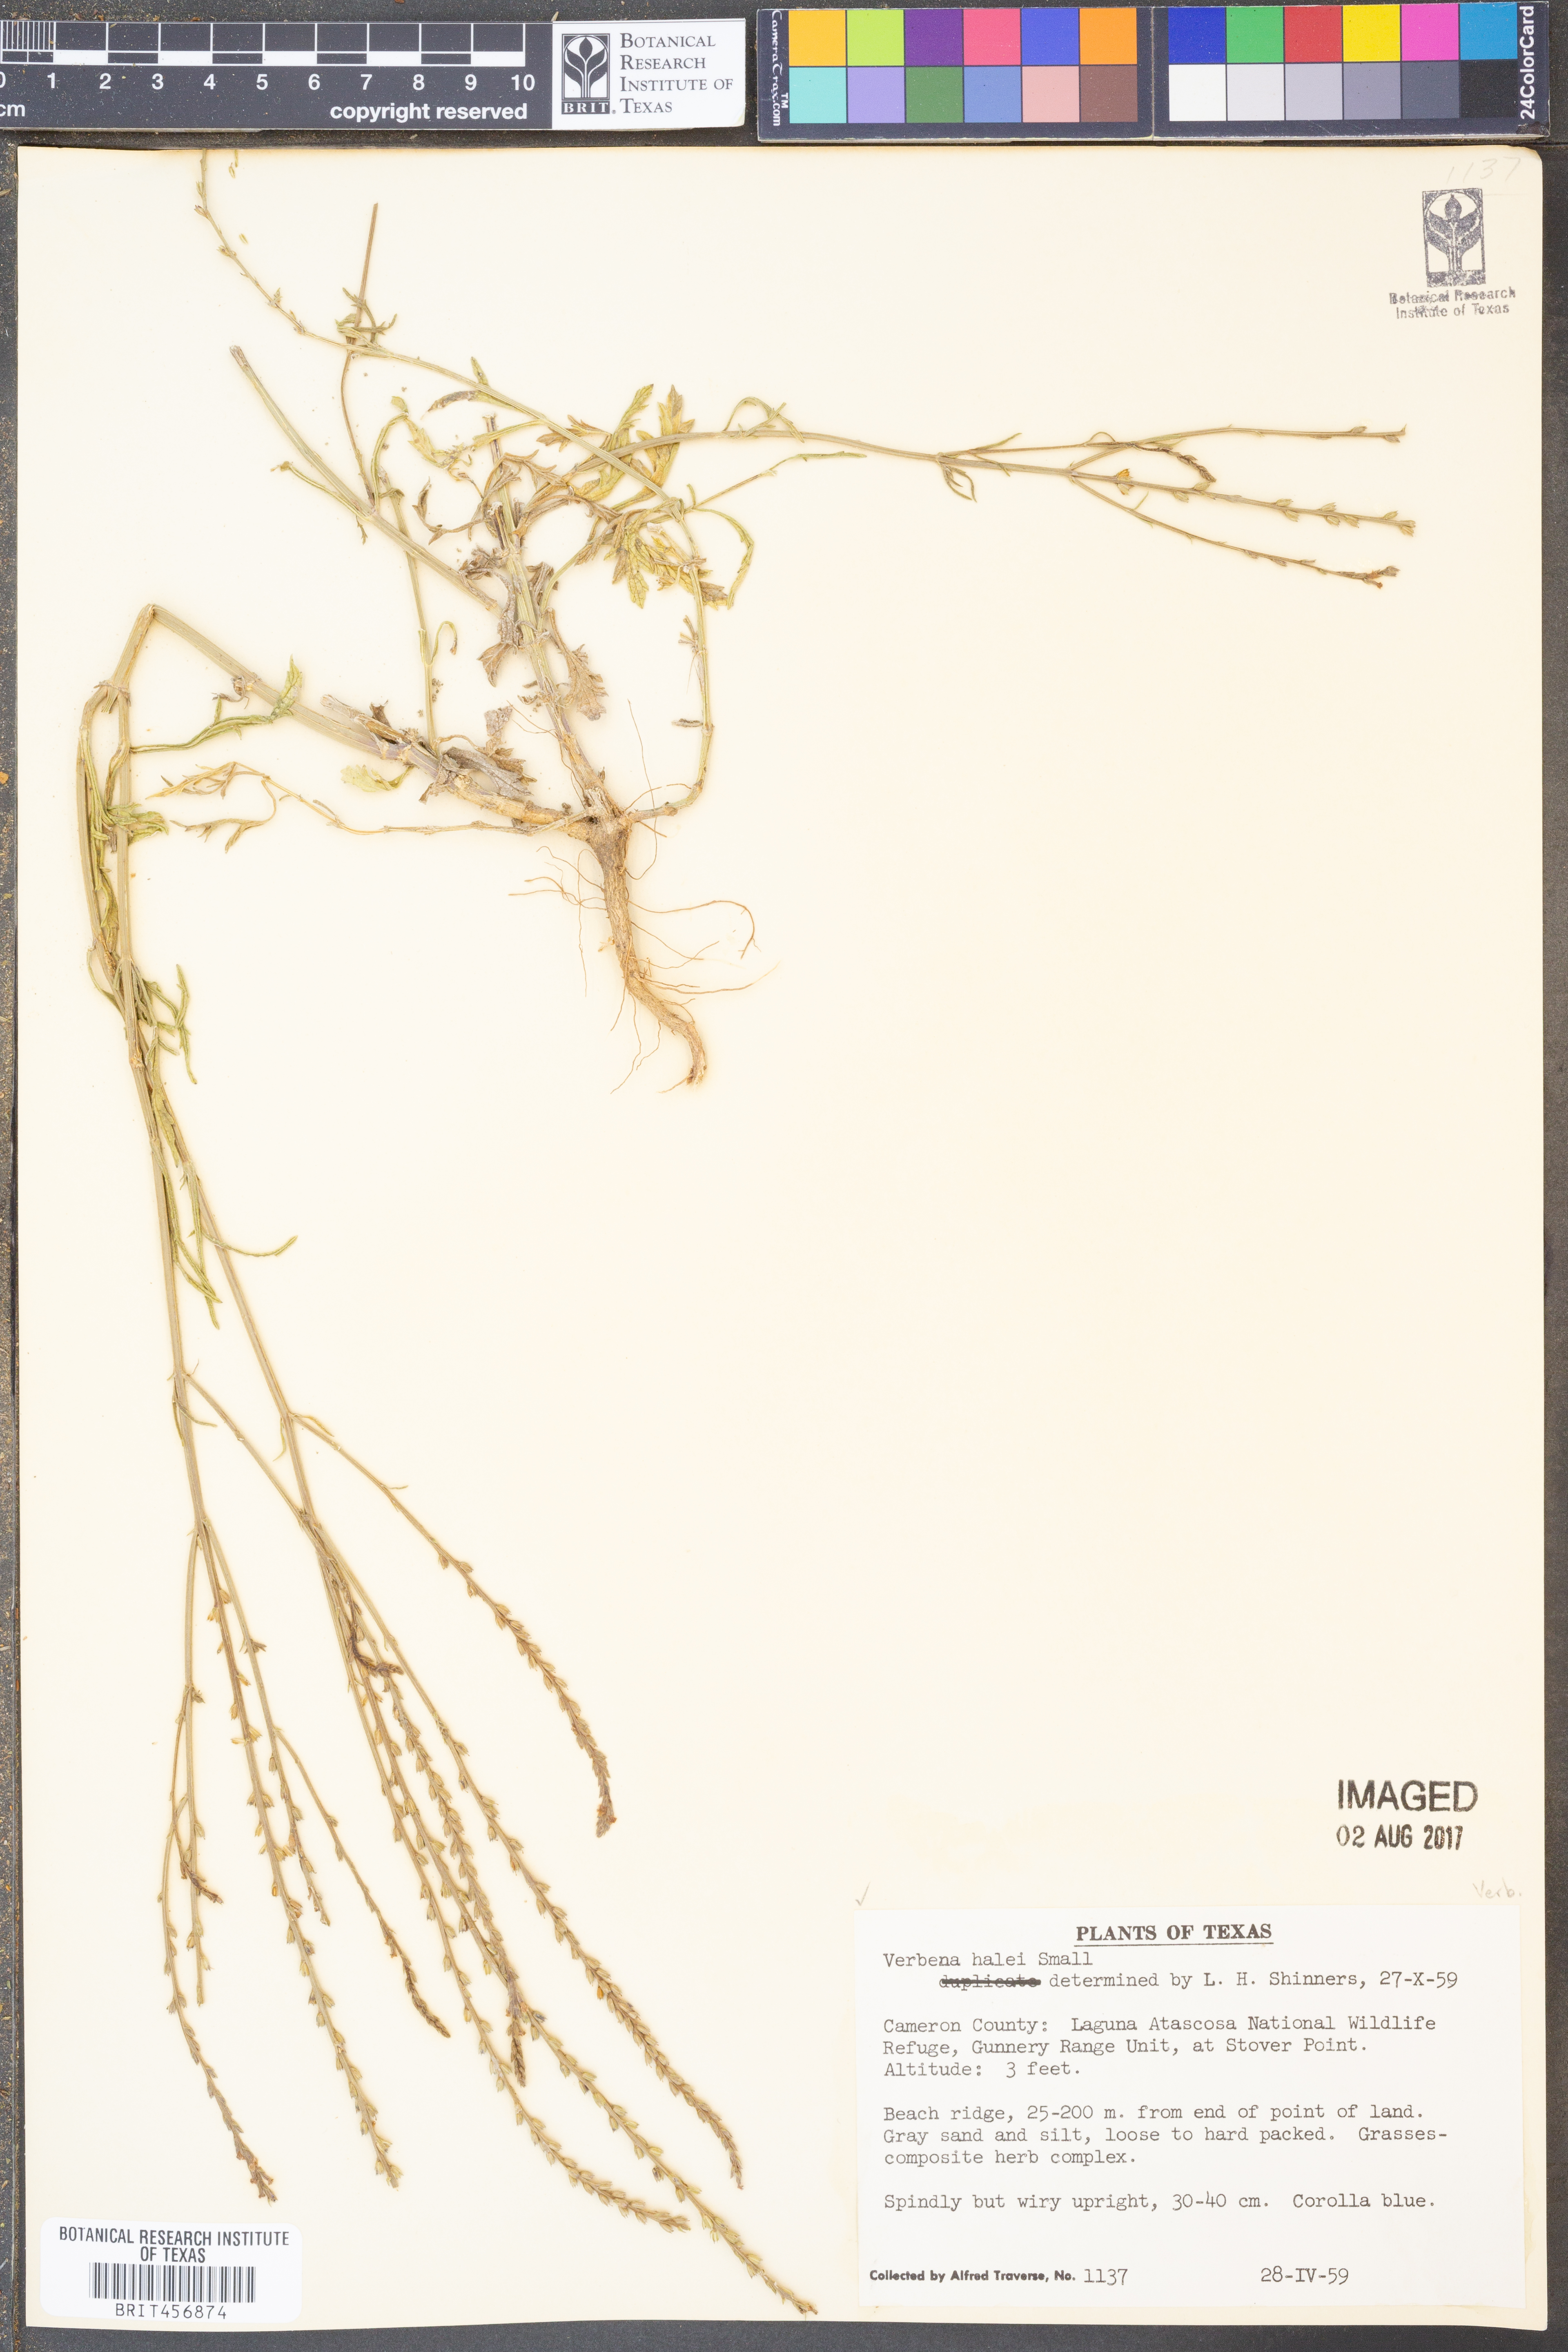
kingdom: Plantae
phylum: Tracheophyta
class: Magnoliopsida
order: Lamiales
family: Verbenaceae
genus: Verbena
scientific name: Verbena halei
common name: Texas vervain
